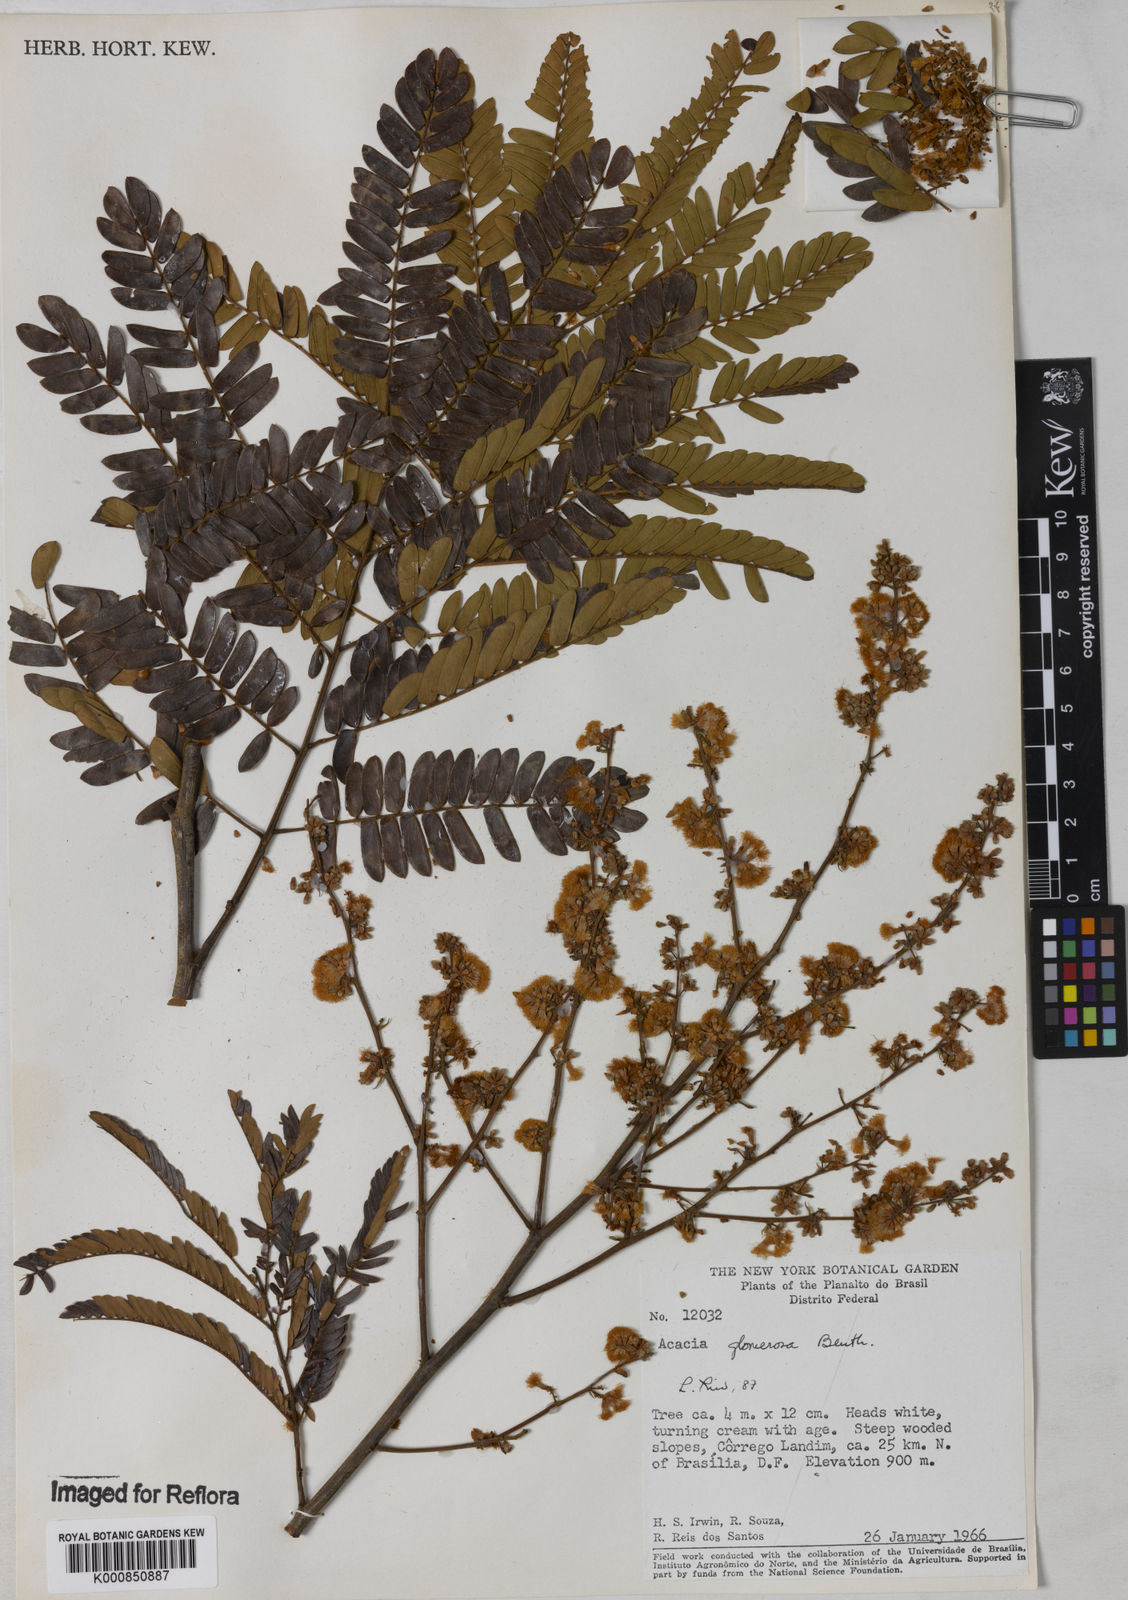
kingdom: Plantae
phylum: Tracheophyta
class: Magnoliopsida
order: Fabales
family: Fabaceae
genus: Senegalia
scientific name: Senegalia polyphylla
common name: White-tamarind
